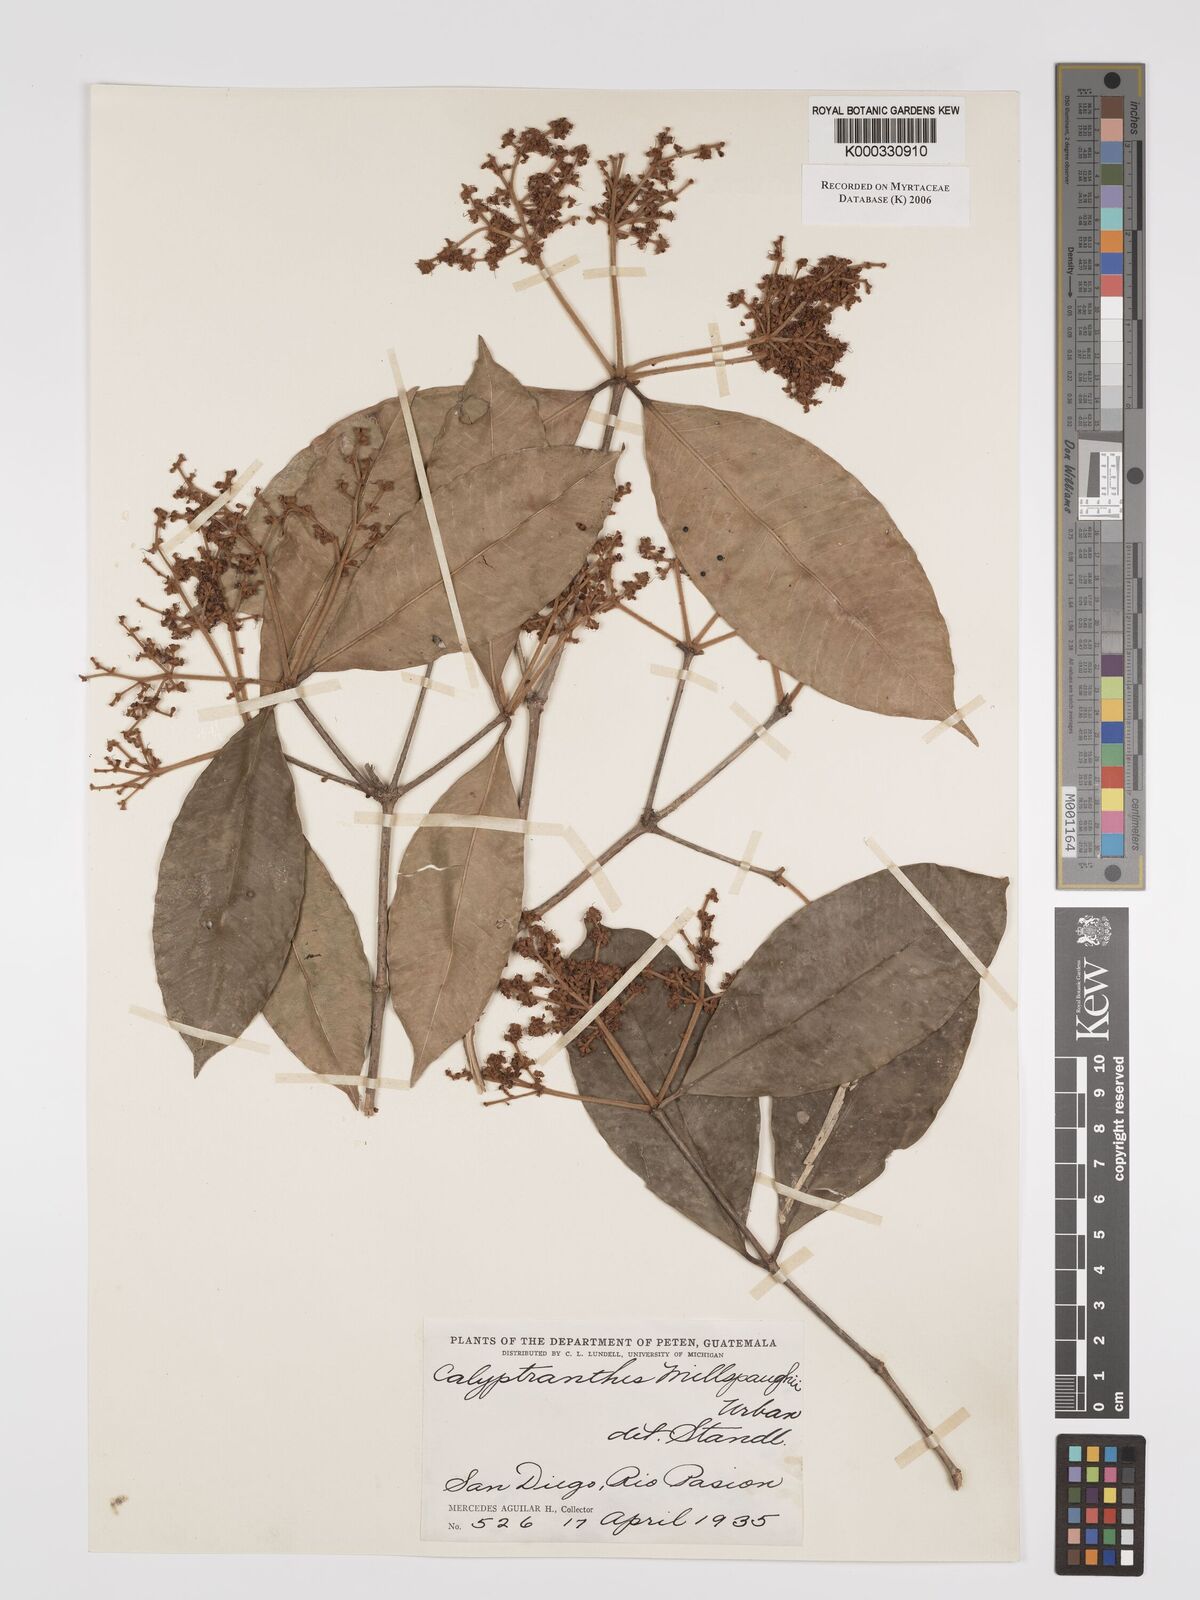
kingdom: Plantae
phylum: Tracheophyta
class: Magnoliopsida
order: Myrtales
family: Myrtaceae
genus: Myrcia
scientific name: Myrcia millspaughii
